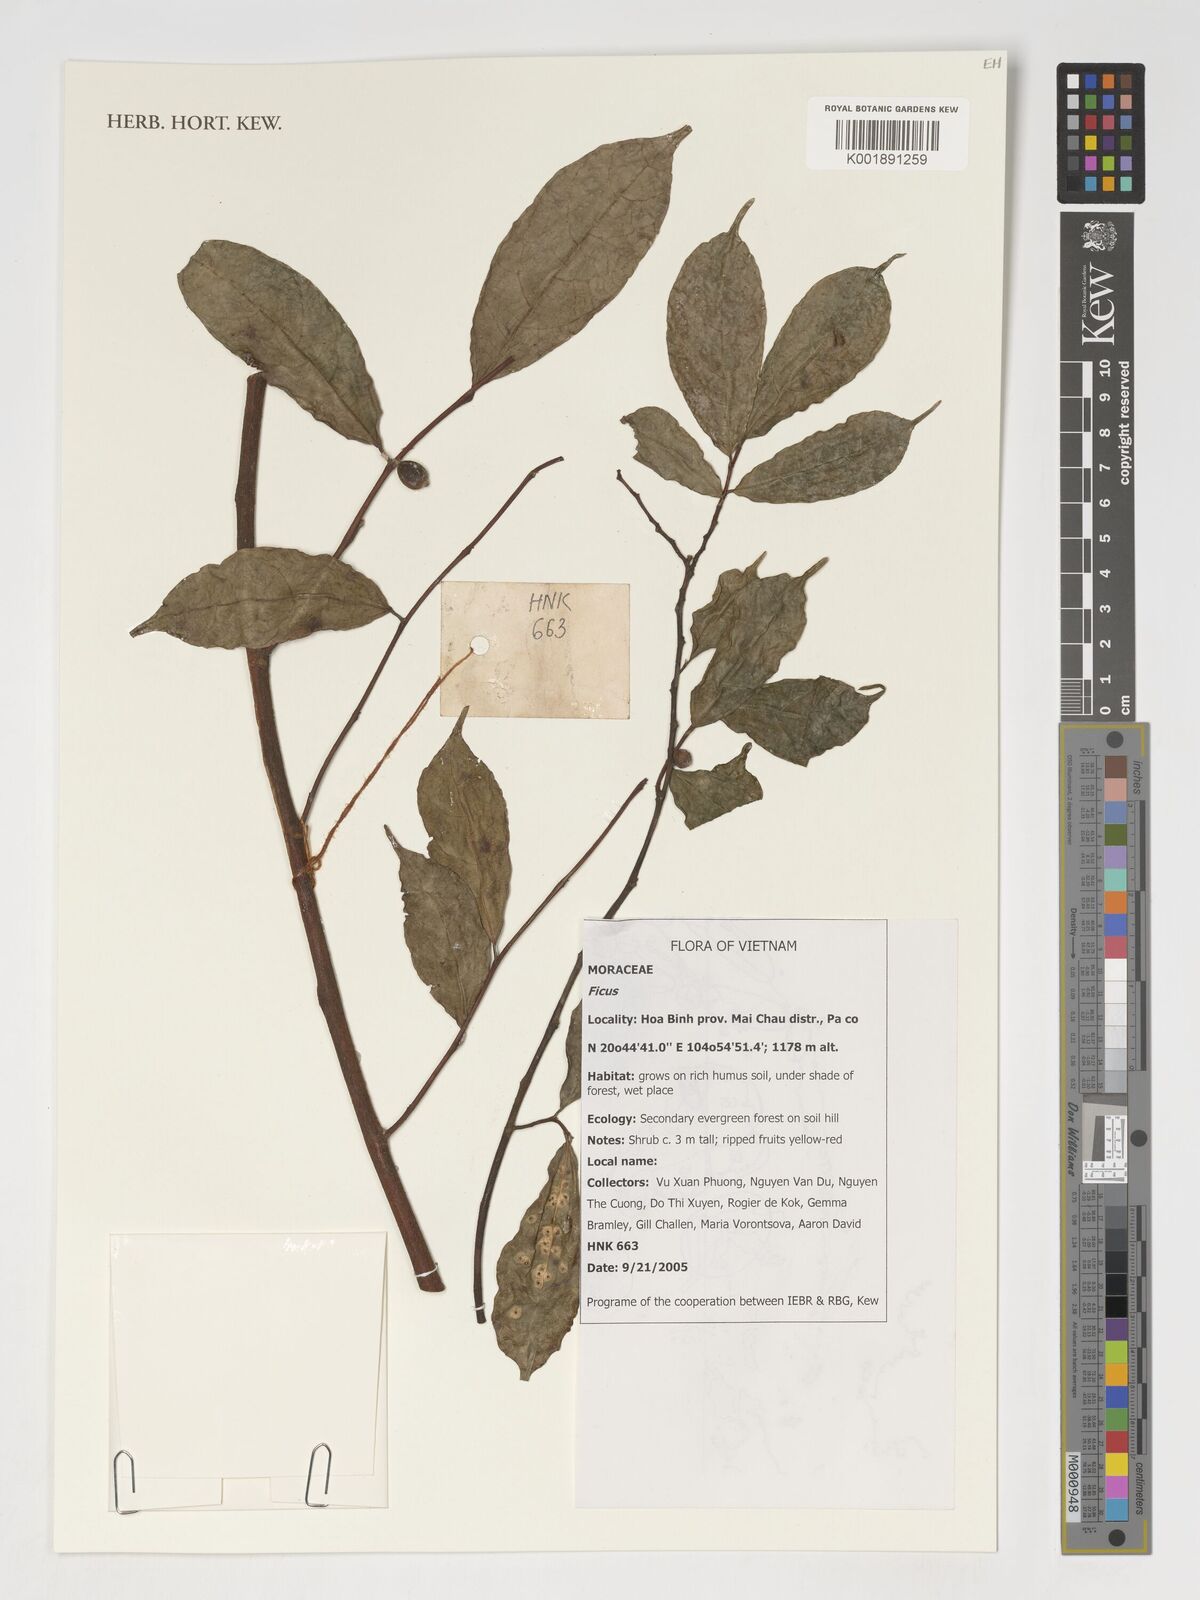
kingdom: Plantae
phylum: Tracheophyta
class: Magnoliopsida
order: Rosales
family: Moraceae
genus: Ficus
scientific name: Ficus
